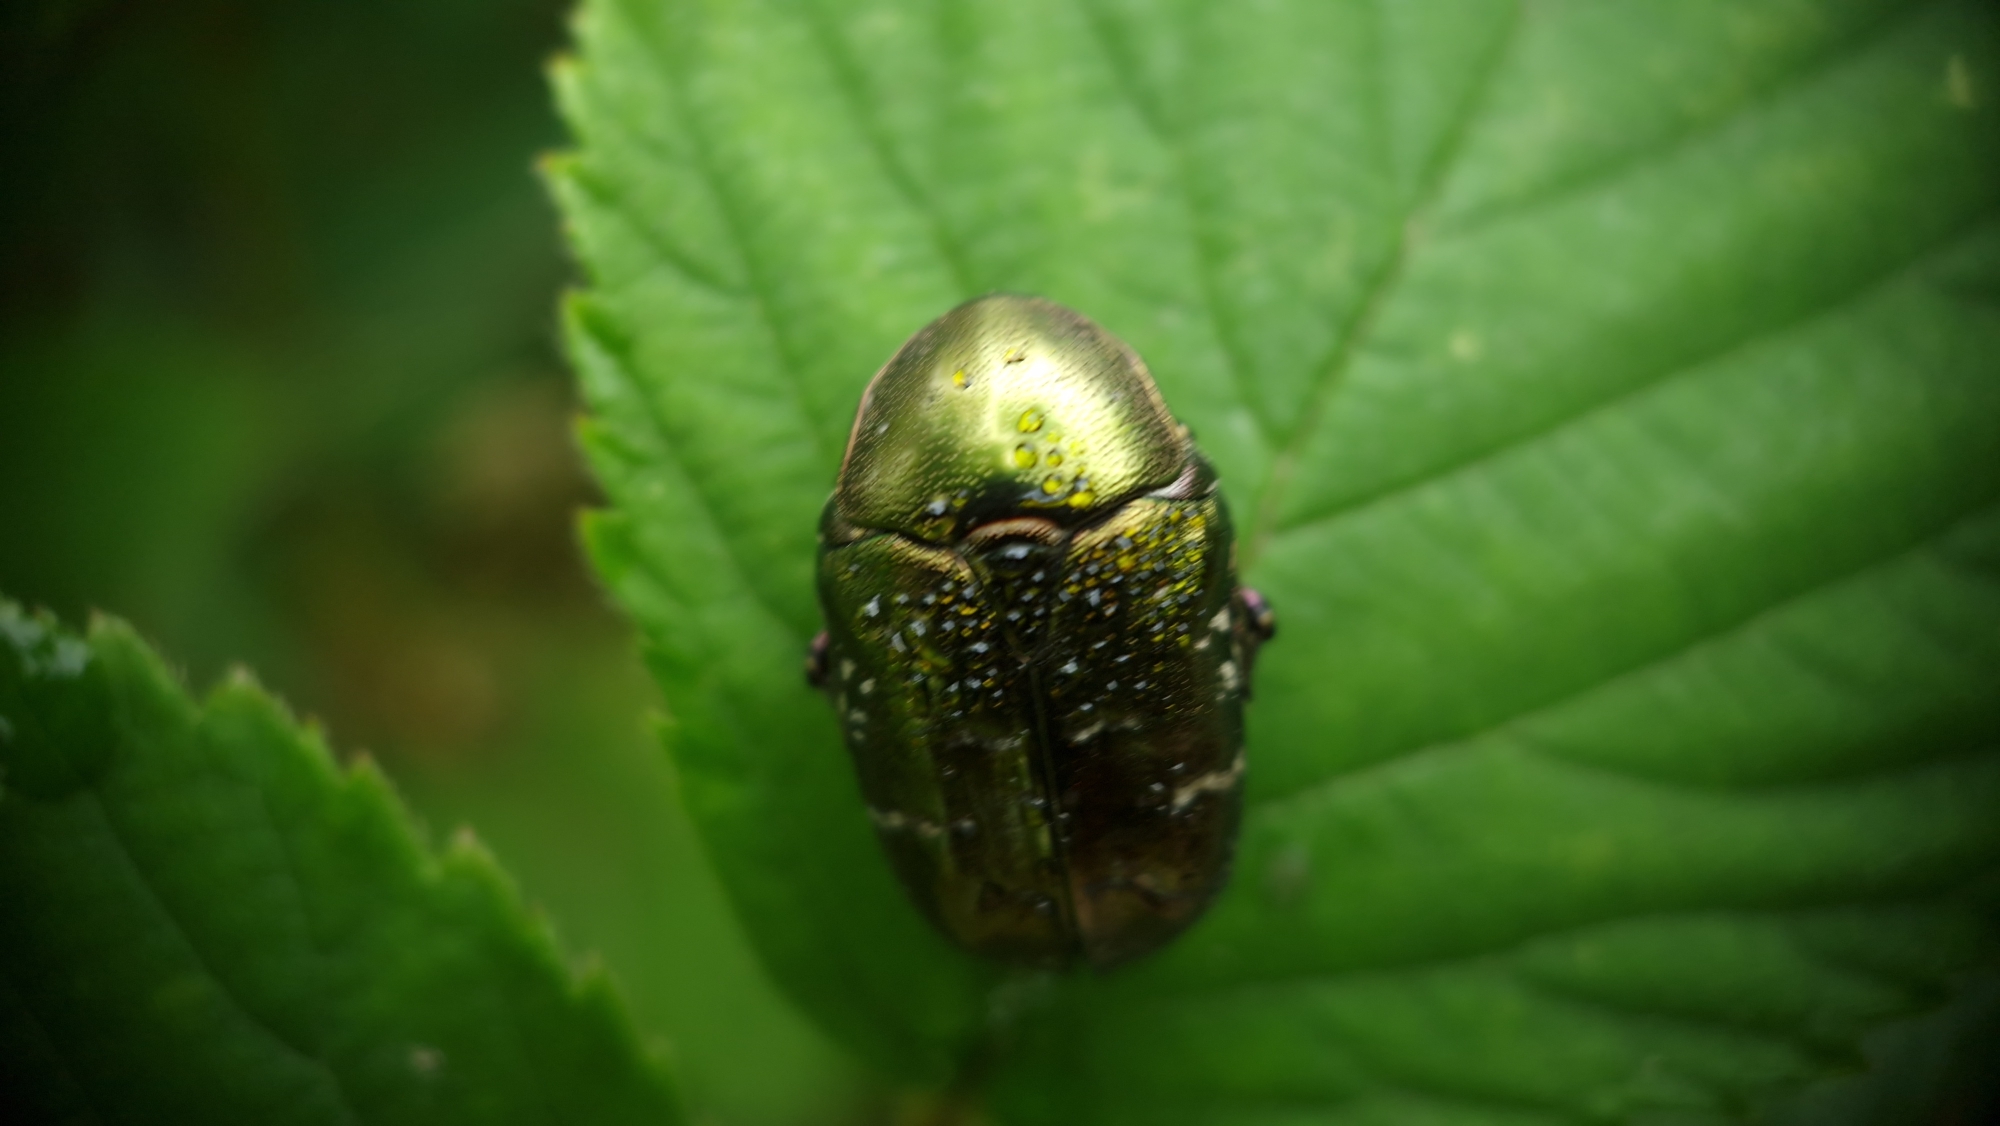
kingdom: Animalia
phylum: Arthropoda
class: Insecta
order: Coleoptera
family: Scarabaeidae
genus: Protaetia
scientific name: Protaetia cuprea
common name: Kobberguldbasse
